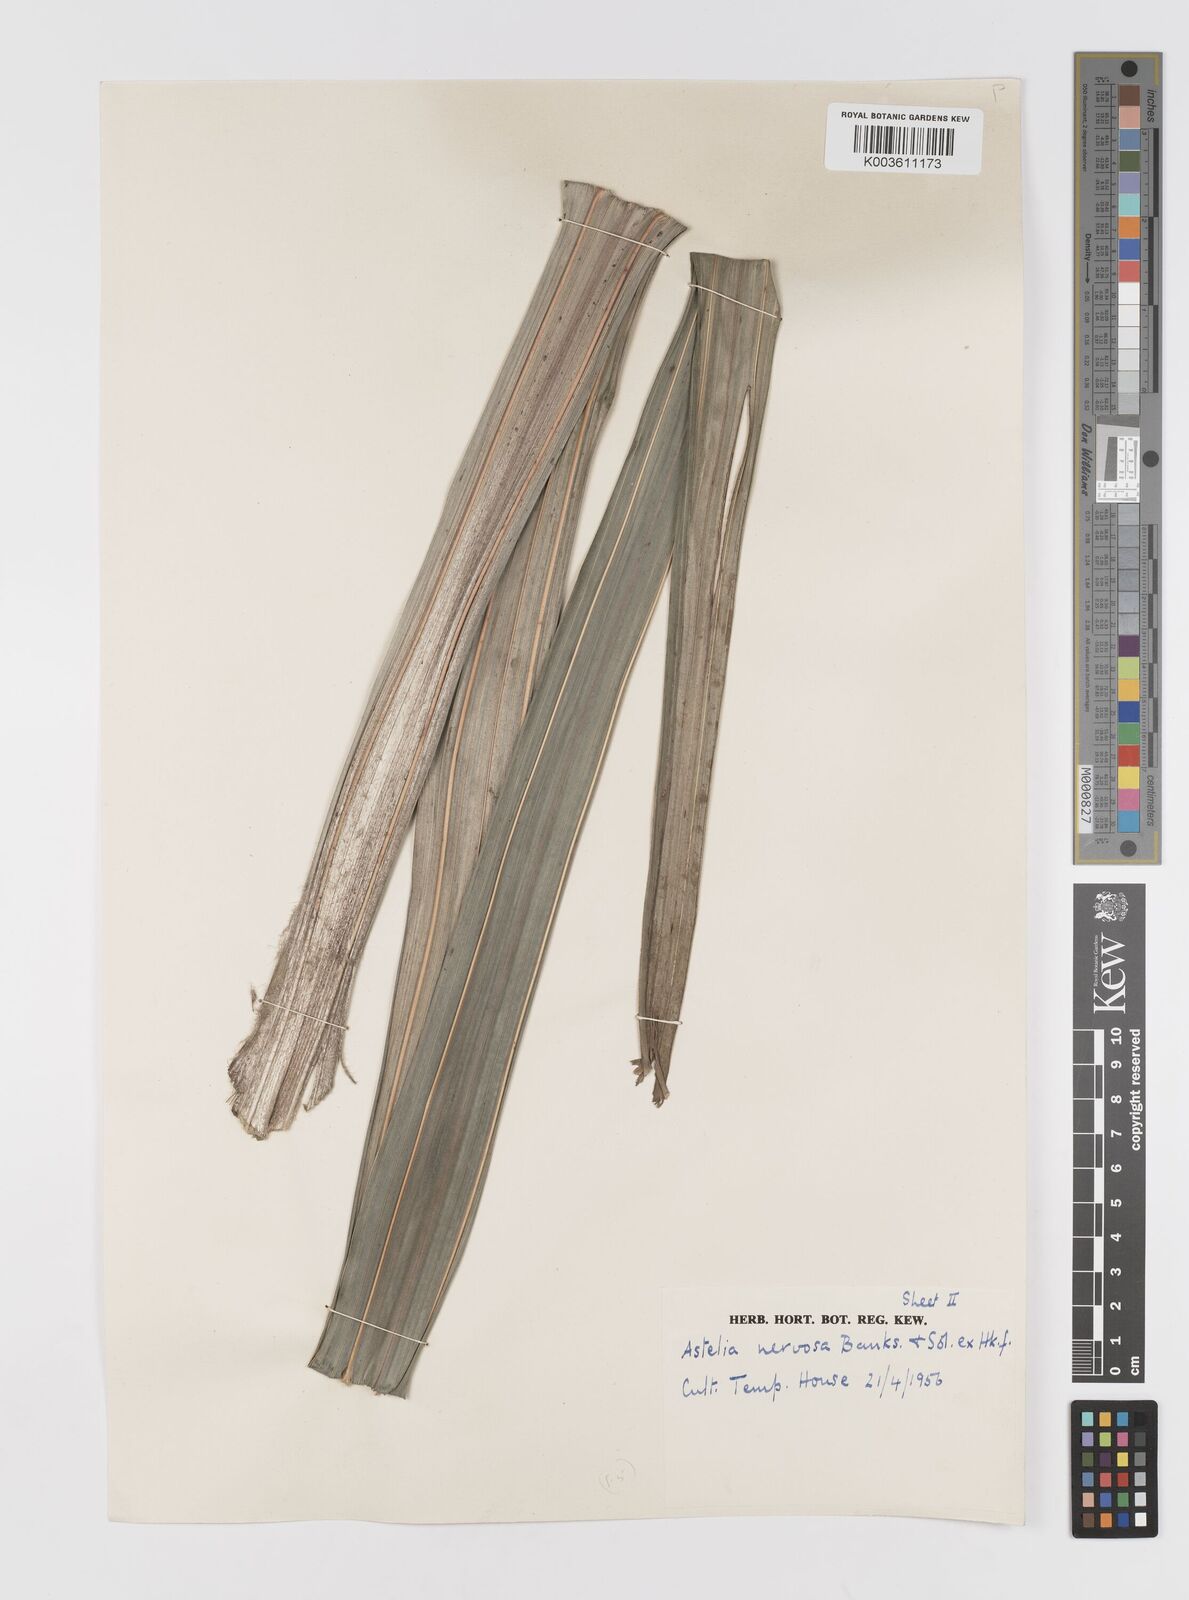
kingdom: Plantae
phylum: Tracheophyta
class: Liliopsida
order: Asparagales
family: Asteliaceae
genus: Astelia
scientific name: Astelia nervosa
